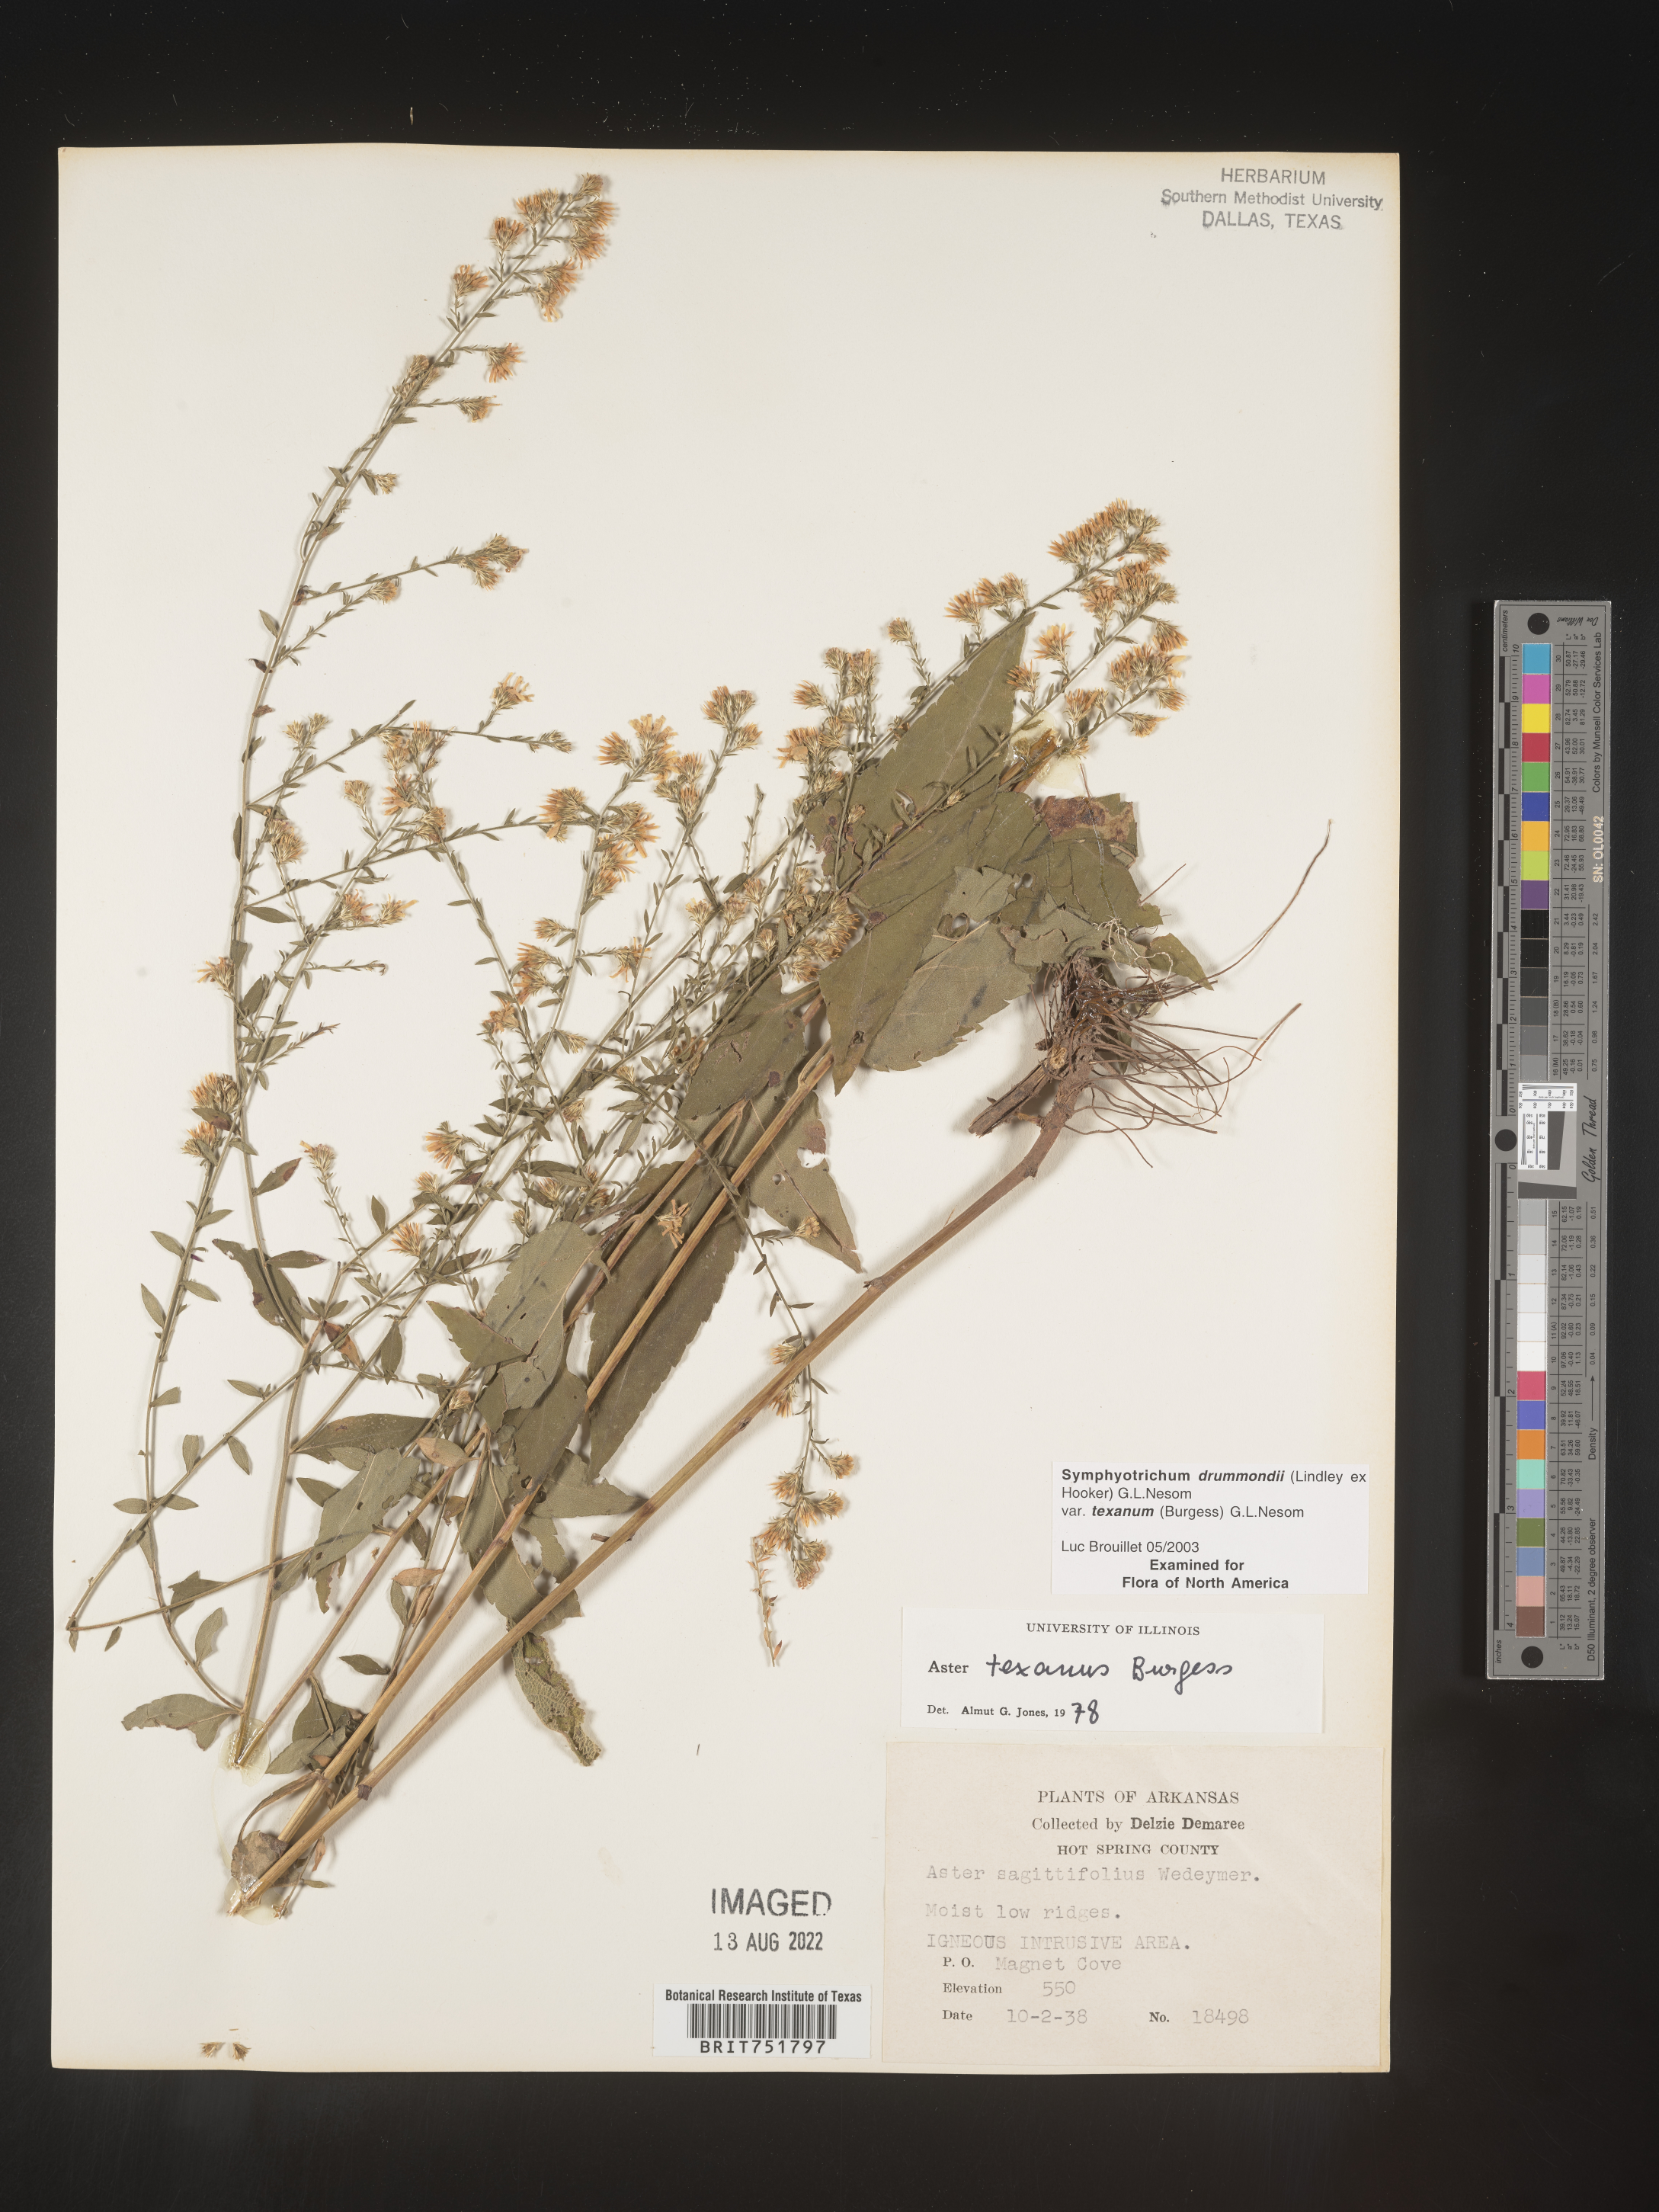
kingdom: Plantae
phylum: Tracheophyta
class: Magnoliopsida
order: Asterales
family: Asteraceae
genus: Symphyotrichum
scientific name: Symphyotrichum drummondii
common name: Drummond's aster
